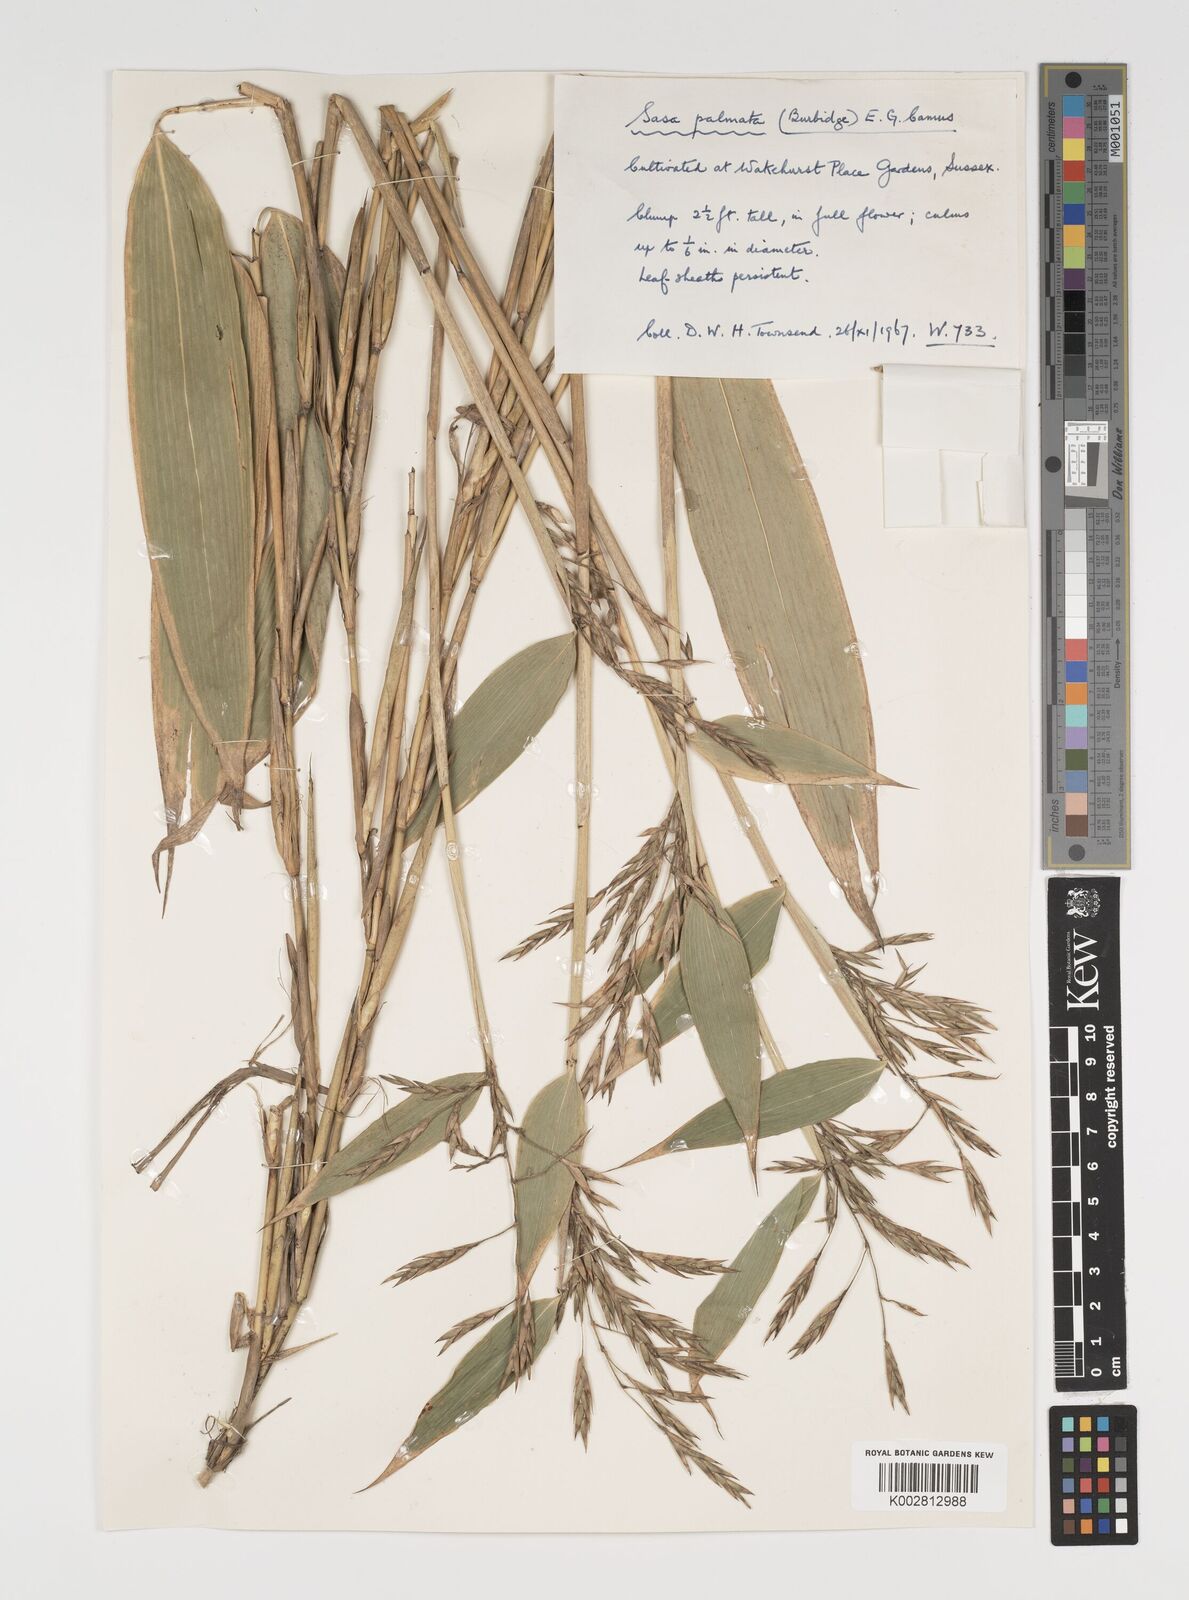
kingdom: Plantae
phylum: Tracheophyta
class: Liliopsida
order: Poales
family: Poaceae
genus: Sasa
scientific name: Sasa palmata
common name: Broad-leaved bamboo
